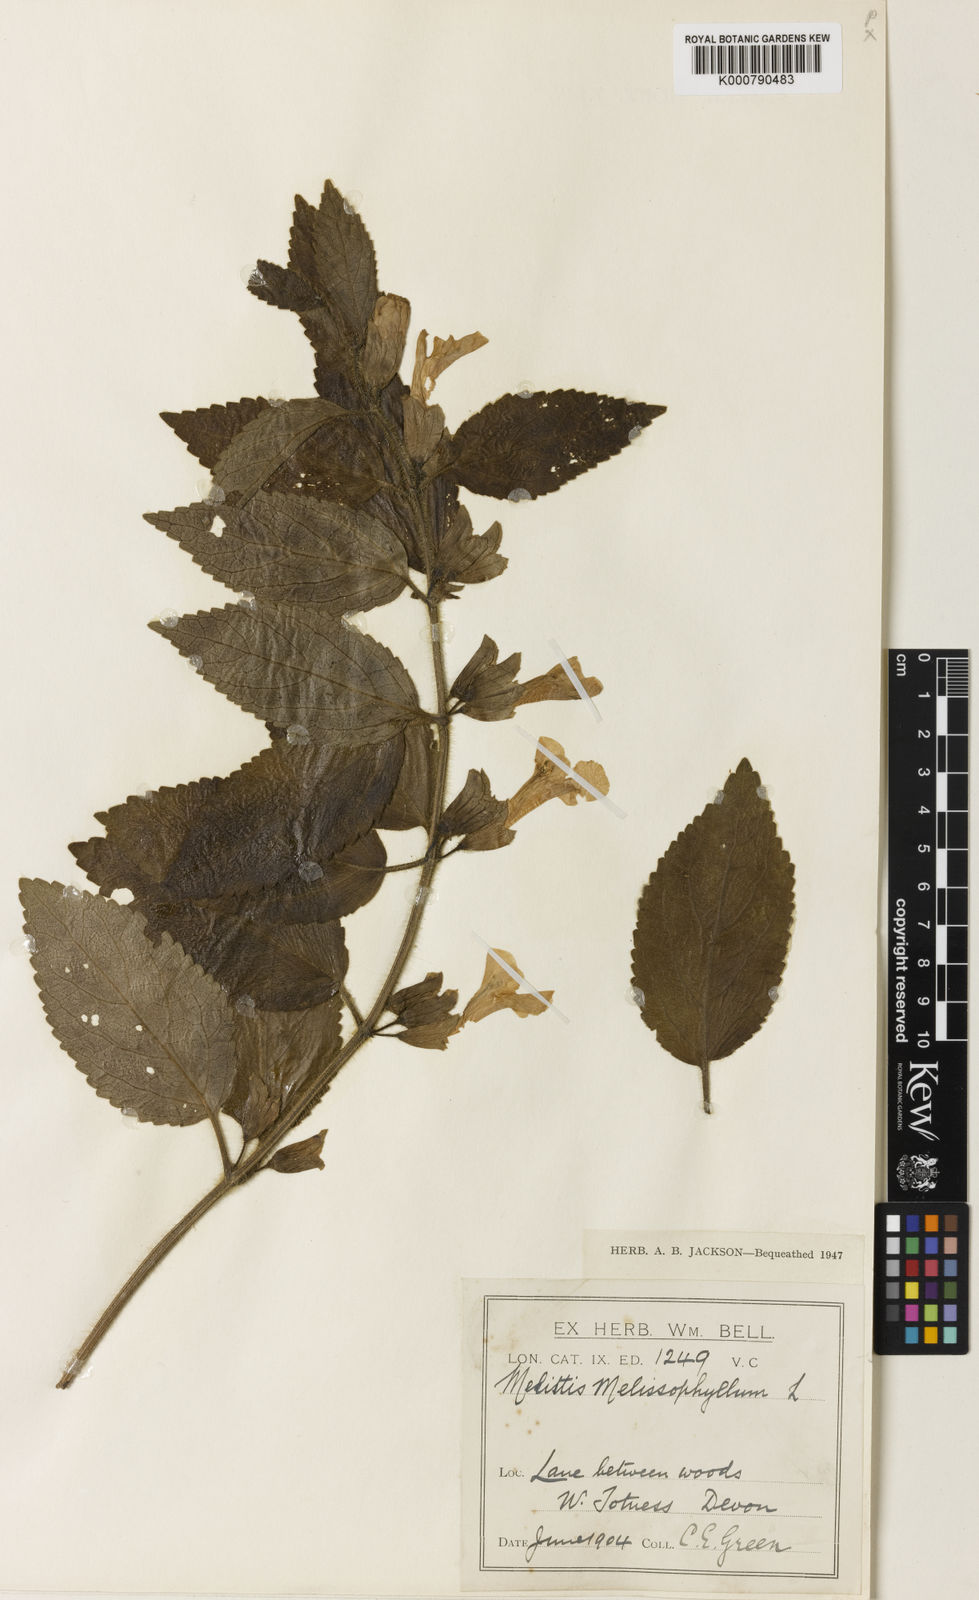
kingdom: Plantae
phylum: Tracheophyta
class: Magnoliopsida
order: Lamiales
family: Lamiaceae
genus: Melittis
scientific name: Melittis melissophyllum
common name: Bastard balm
